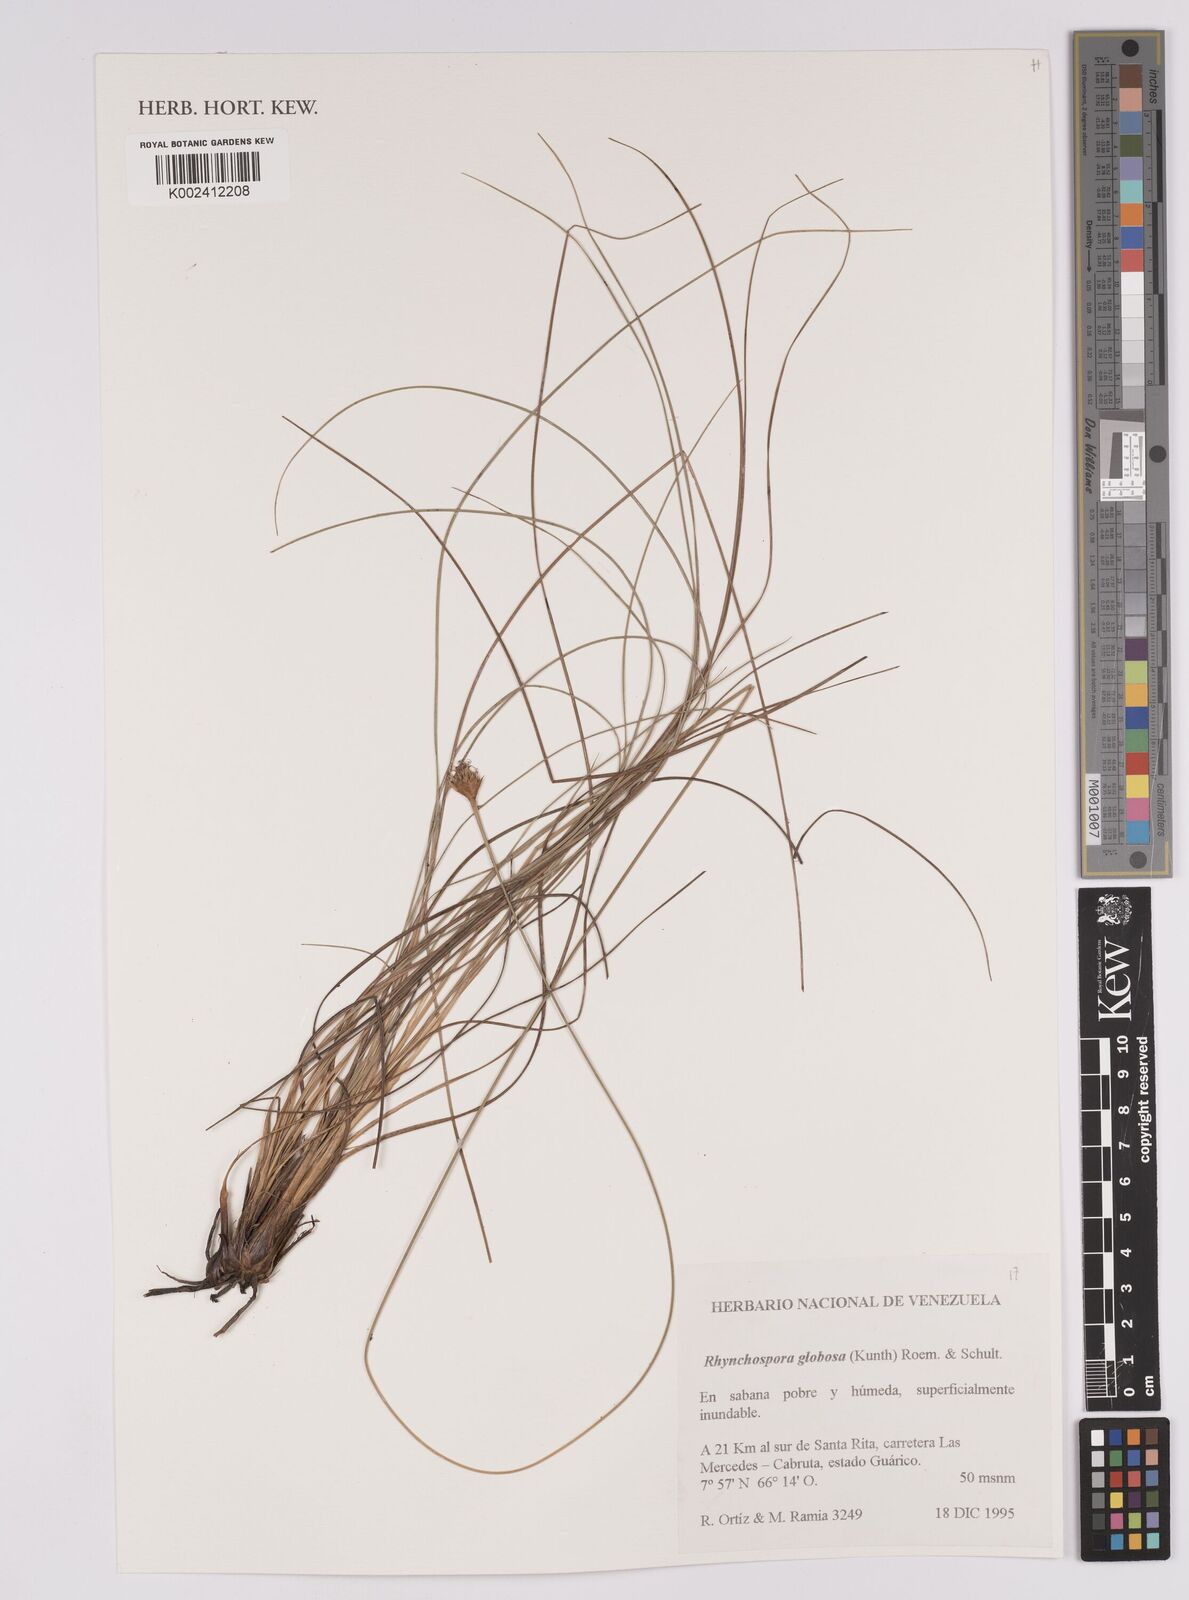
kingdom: Plantae
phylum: Tracheophyta
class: Liliopsida
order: Poales
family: Cyperaceae
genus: Rhynchospora
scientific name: Rhynchospora globosa
